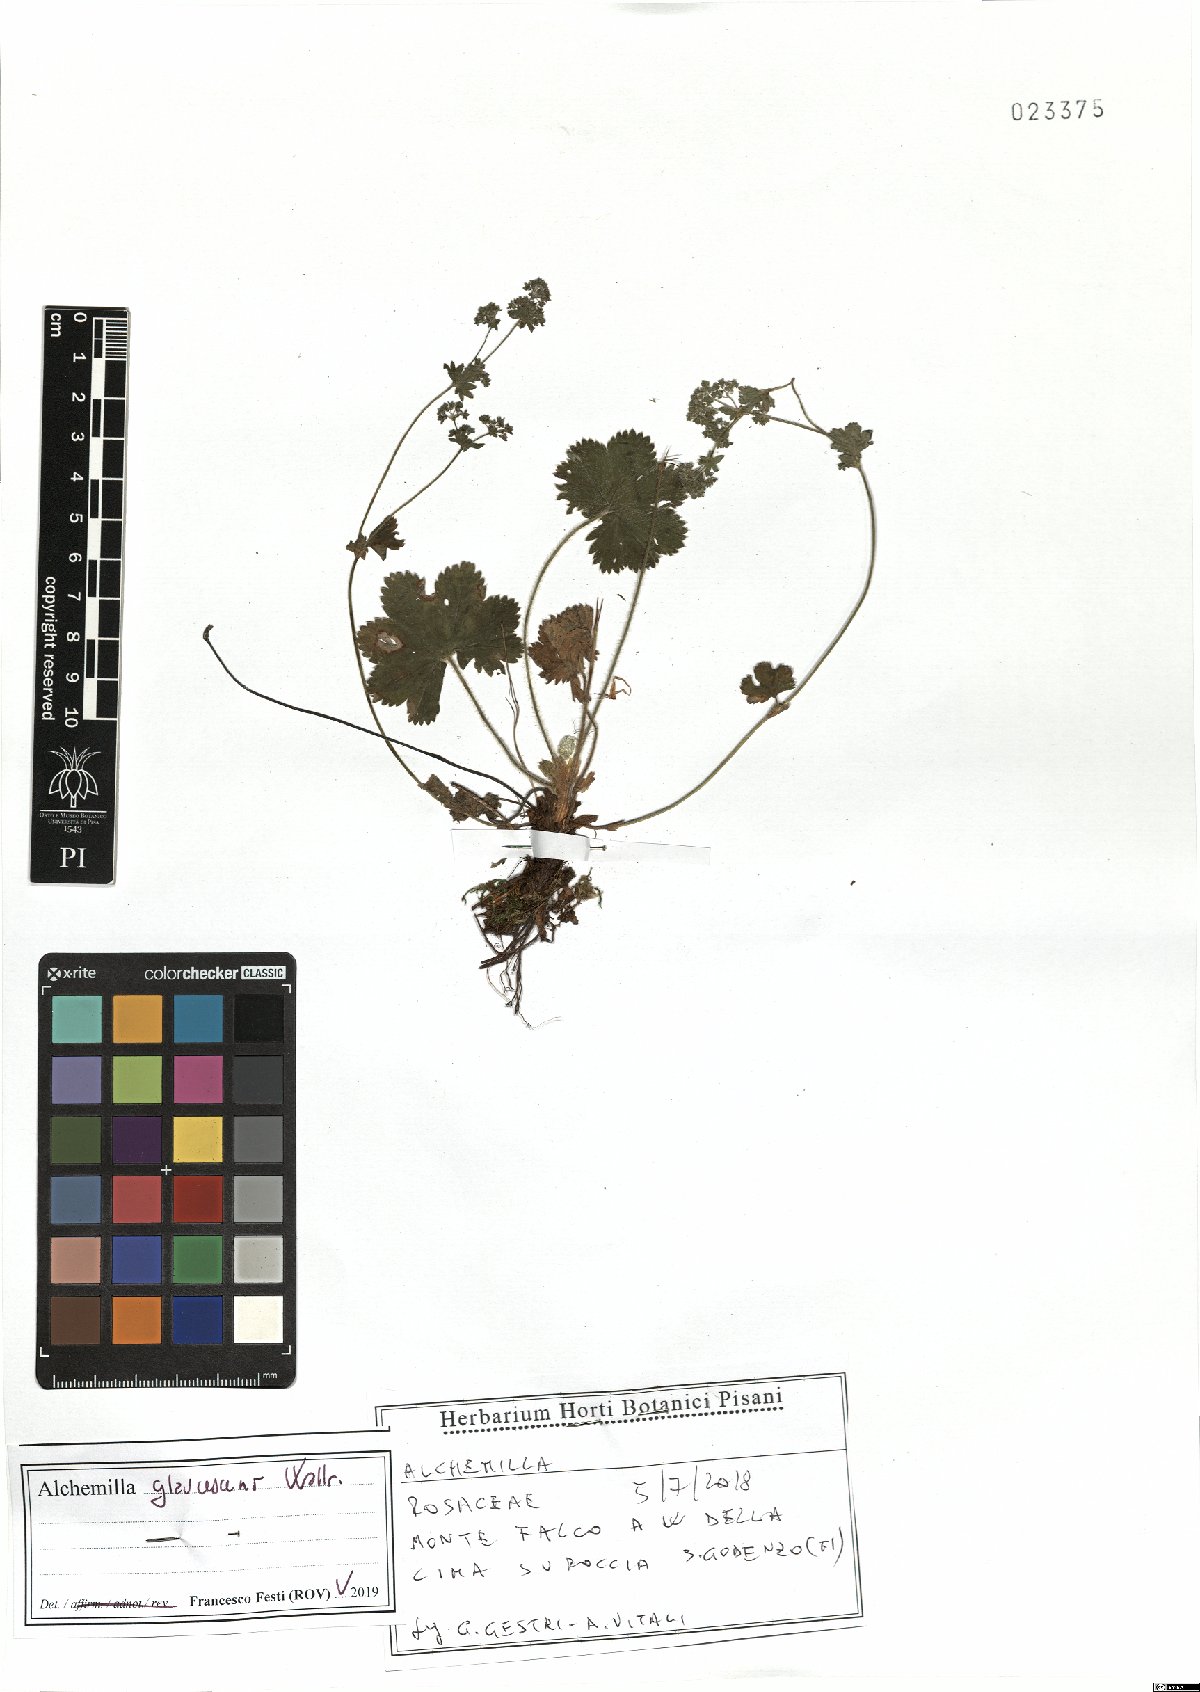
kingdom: Plantae
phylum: Tracheophyta
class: Magnoliopsida
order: Rosales
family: Rosaceae
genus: Alchemilla
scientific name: Alchemilla glaucescens
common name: Silky lady's mantle
